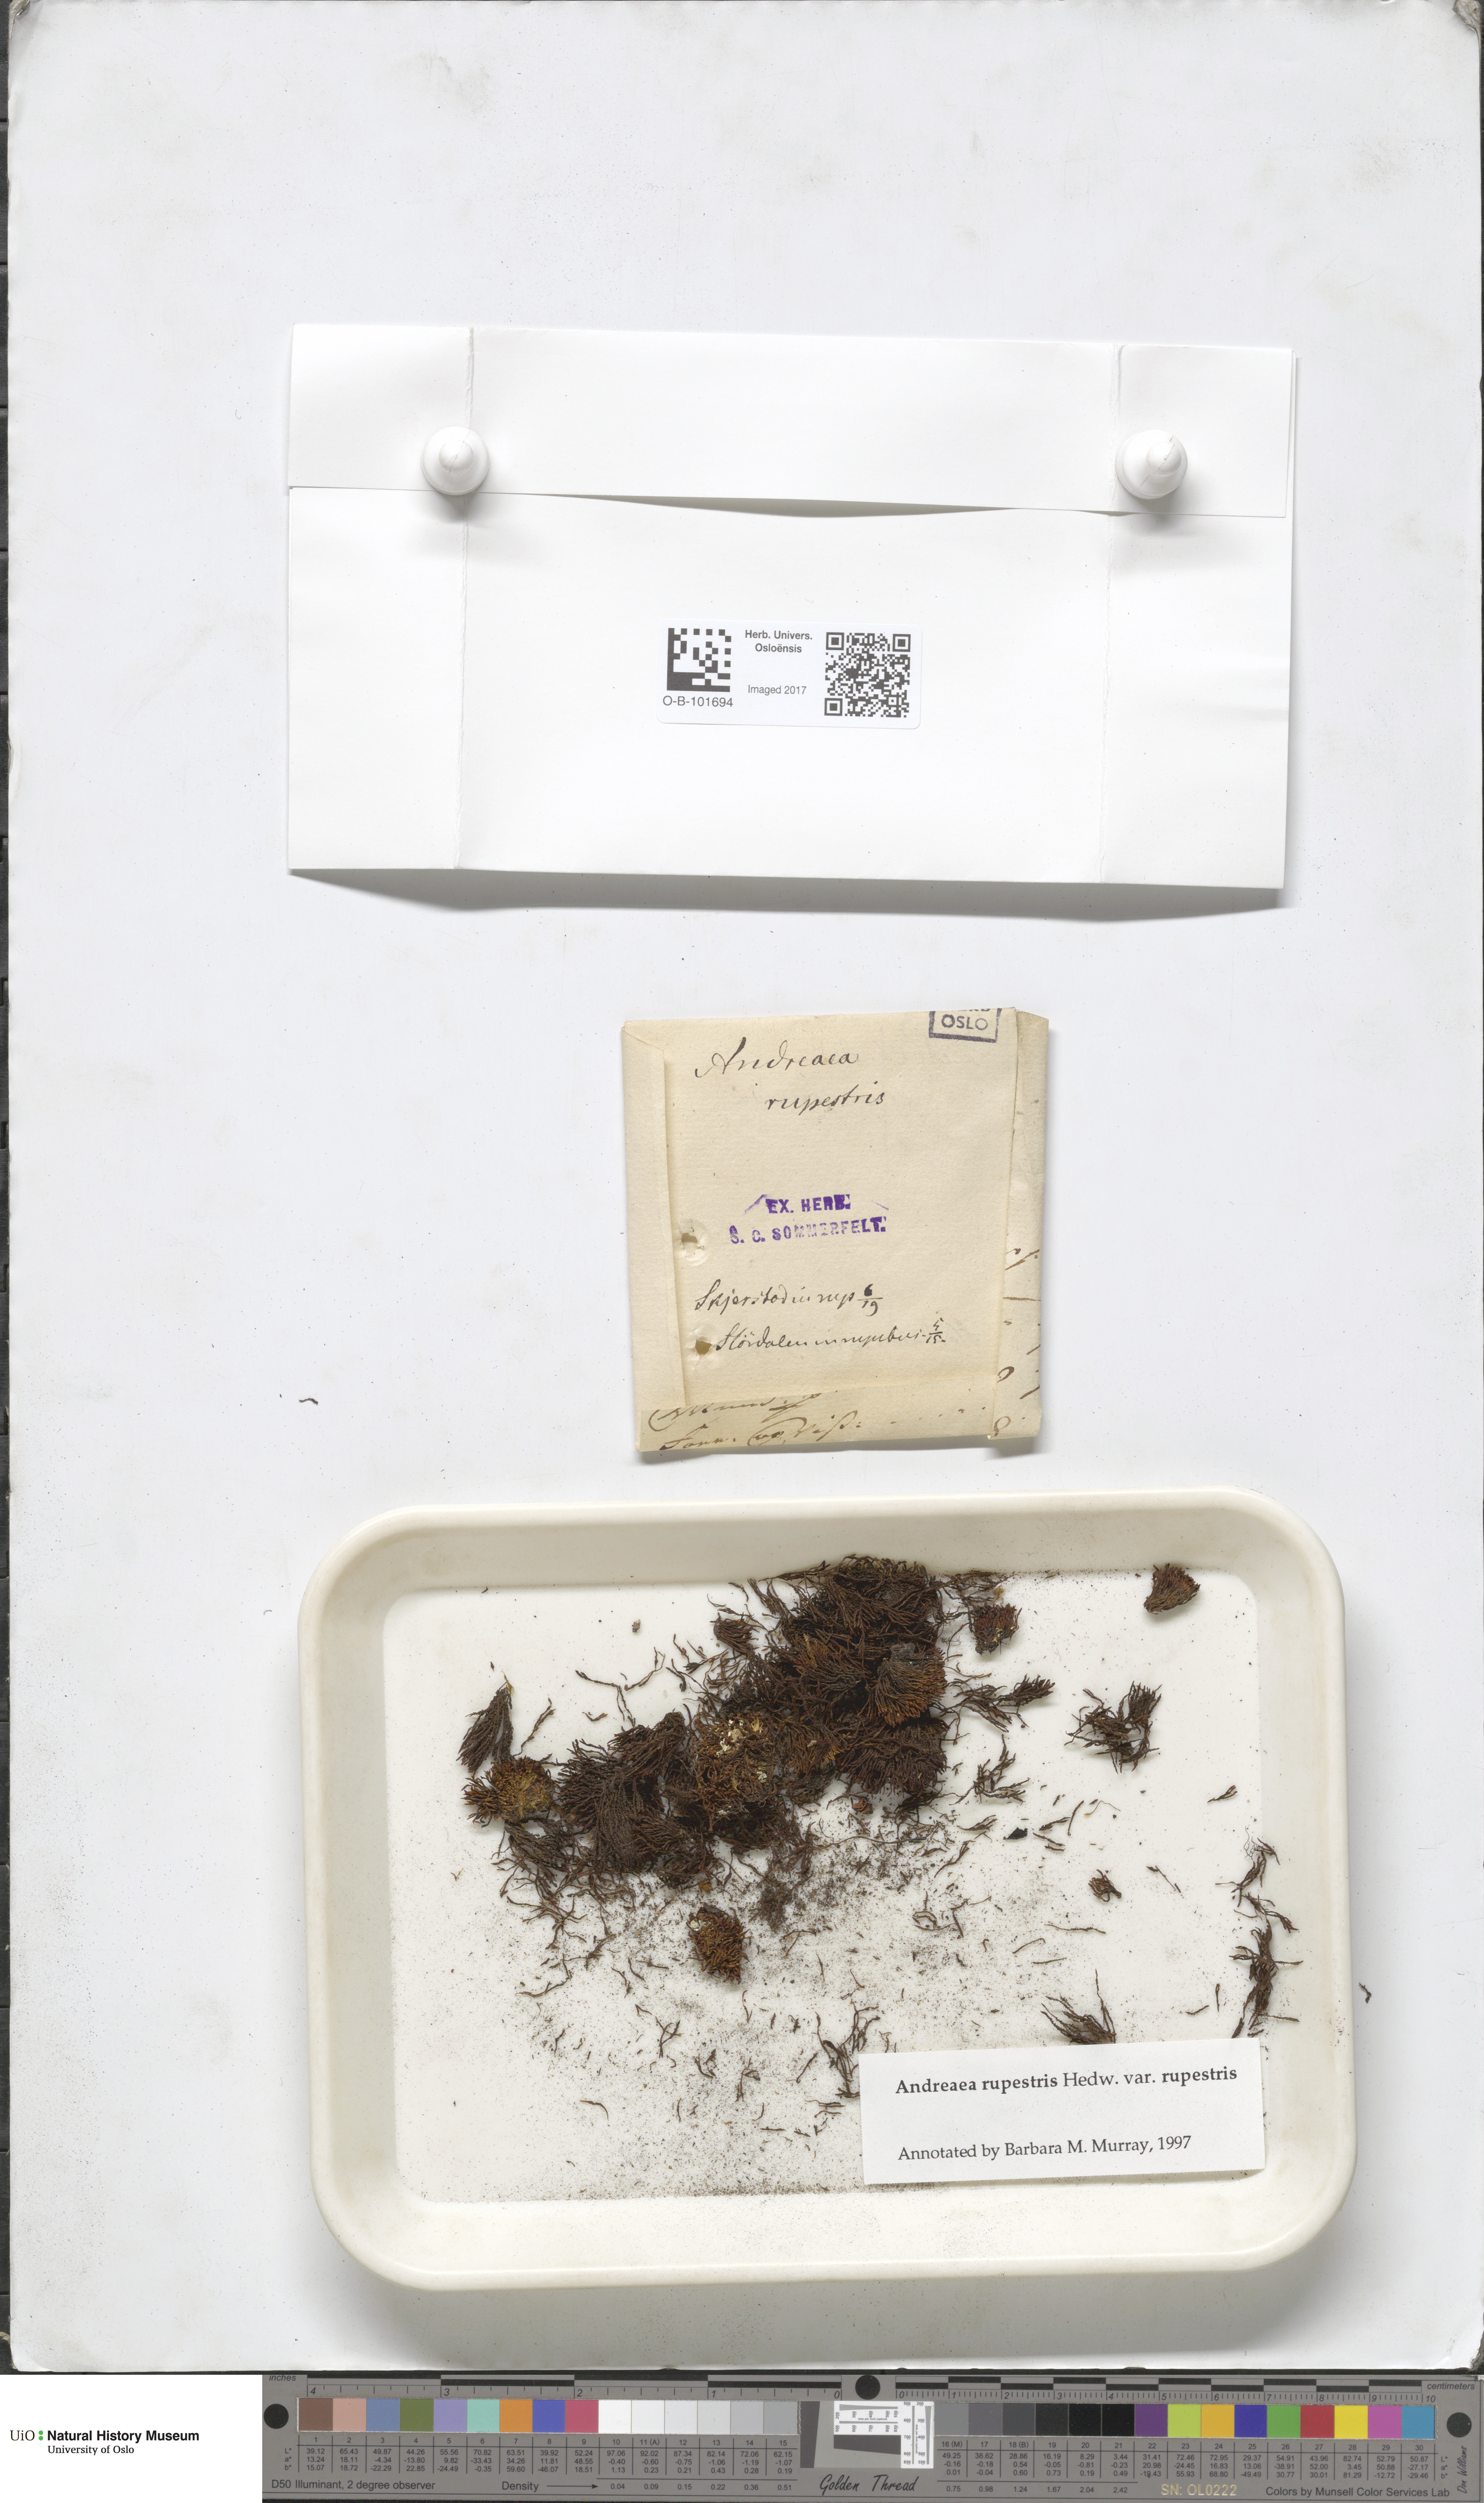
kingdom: Plantae
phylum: Bryophyta
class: Andreaeopsida
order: Andreaeales
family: Andreaeaceae
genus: Andreaea
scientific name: Andreaea rupestris
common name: Black rock moss
